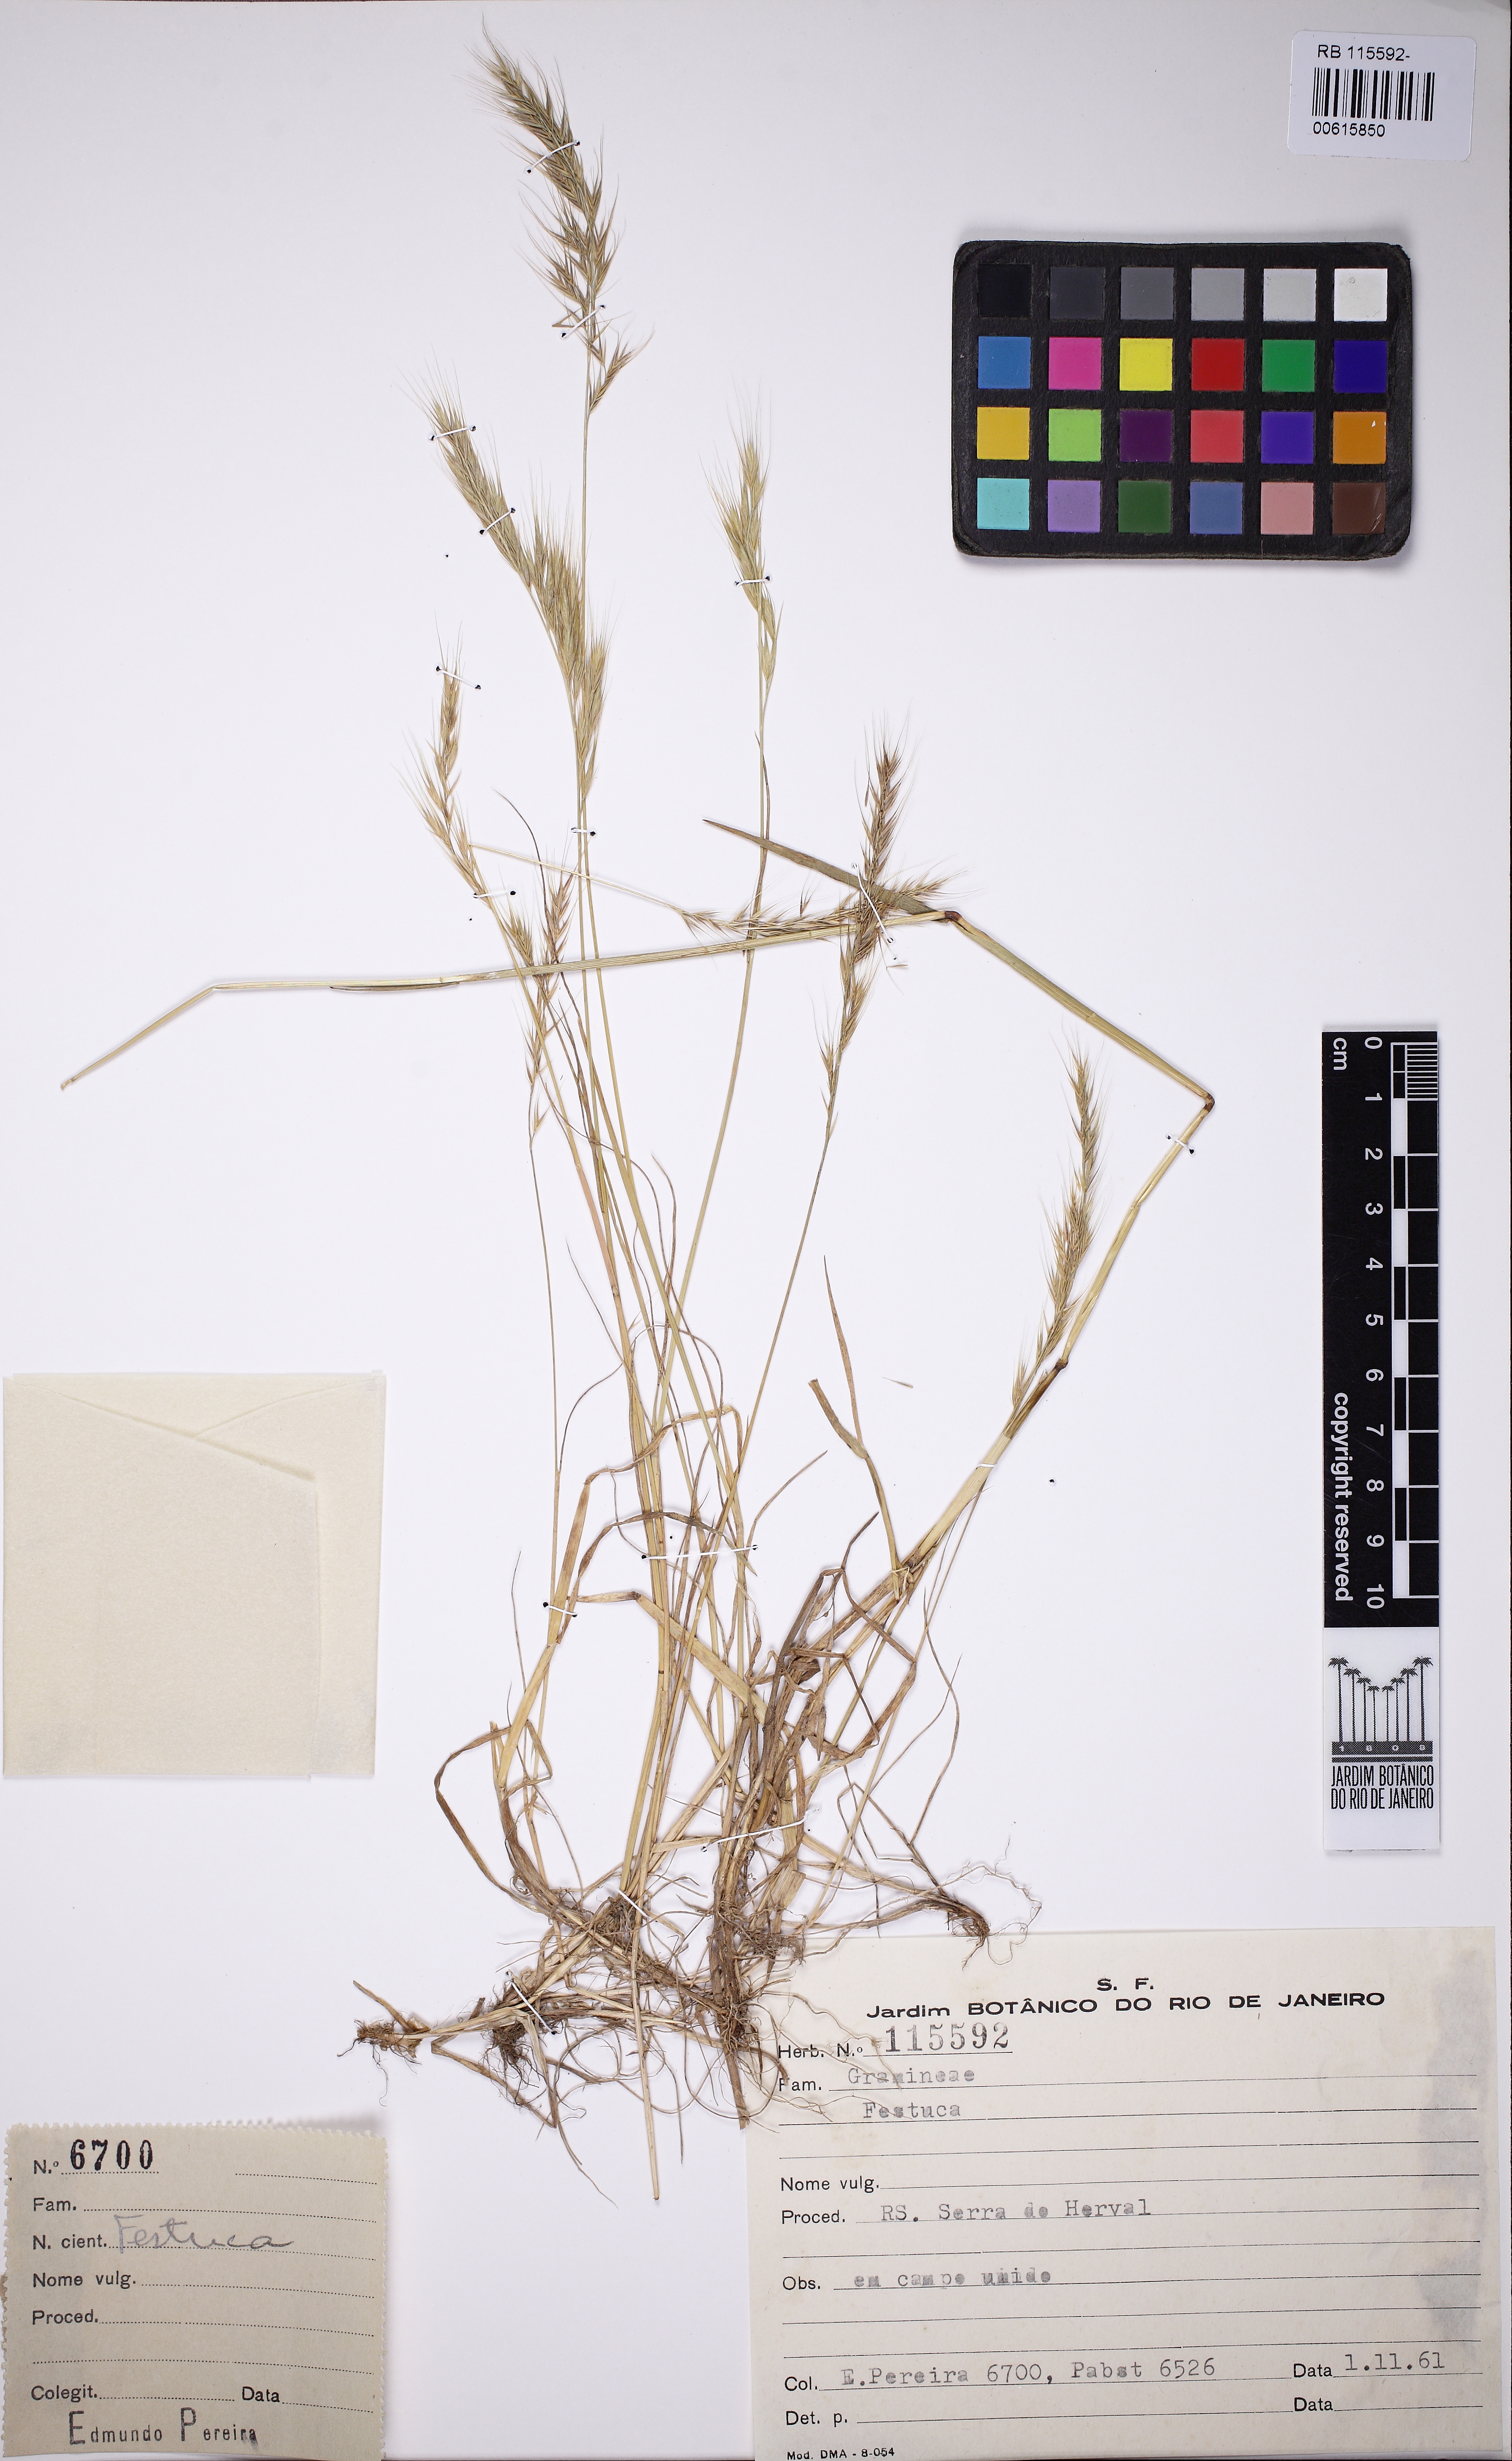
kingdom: Plantae
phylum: Tracheophyta
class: Liliopsida
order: Poales
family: Poaceae
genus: Festuca
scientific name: Festuca
